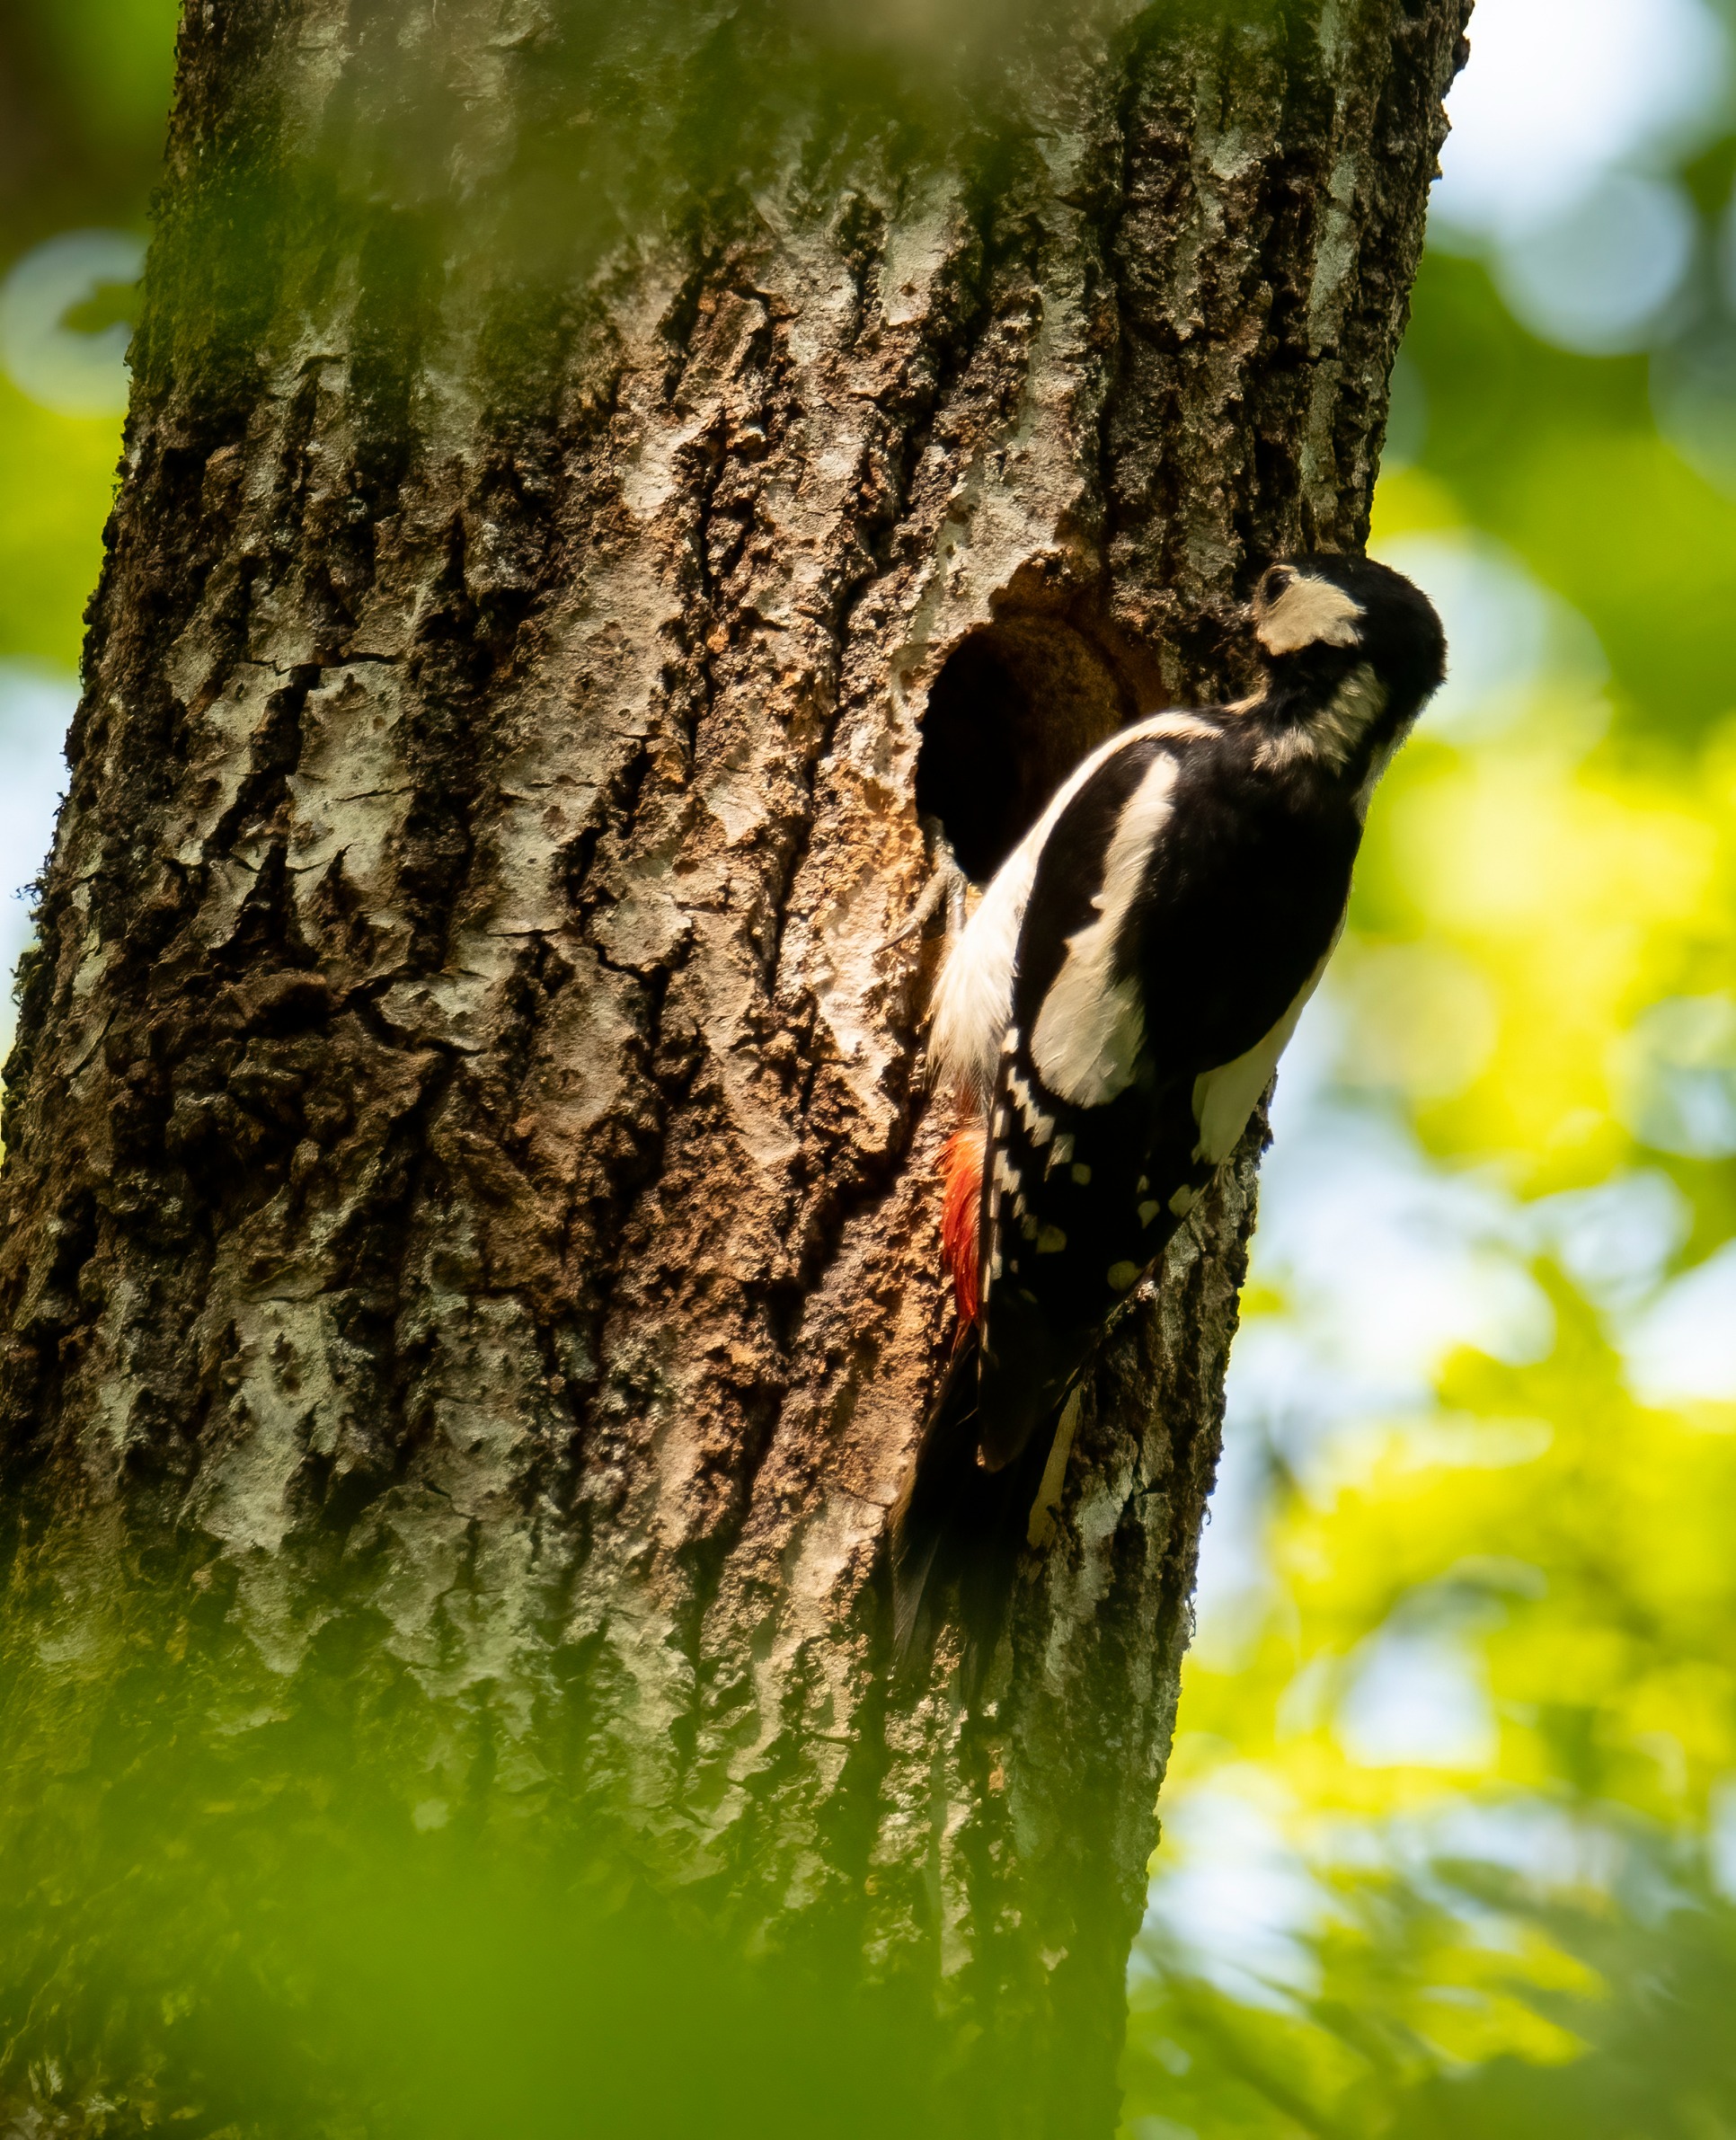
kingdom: Animalia
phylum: Chordata
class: Aves
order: Piciformes
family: Picidae
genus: Dendrocopos
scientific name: Dendrocopos major
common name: Stor flagspætte
